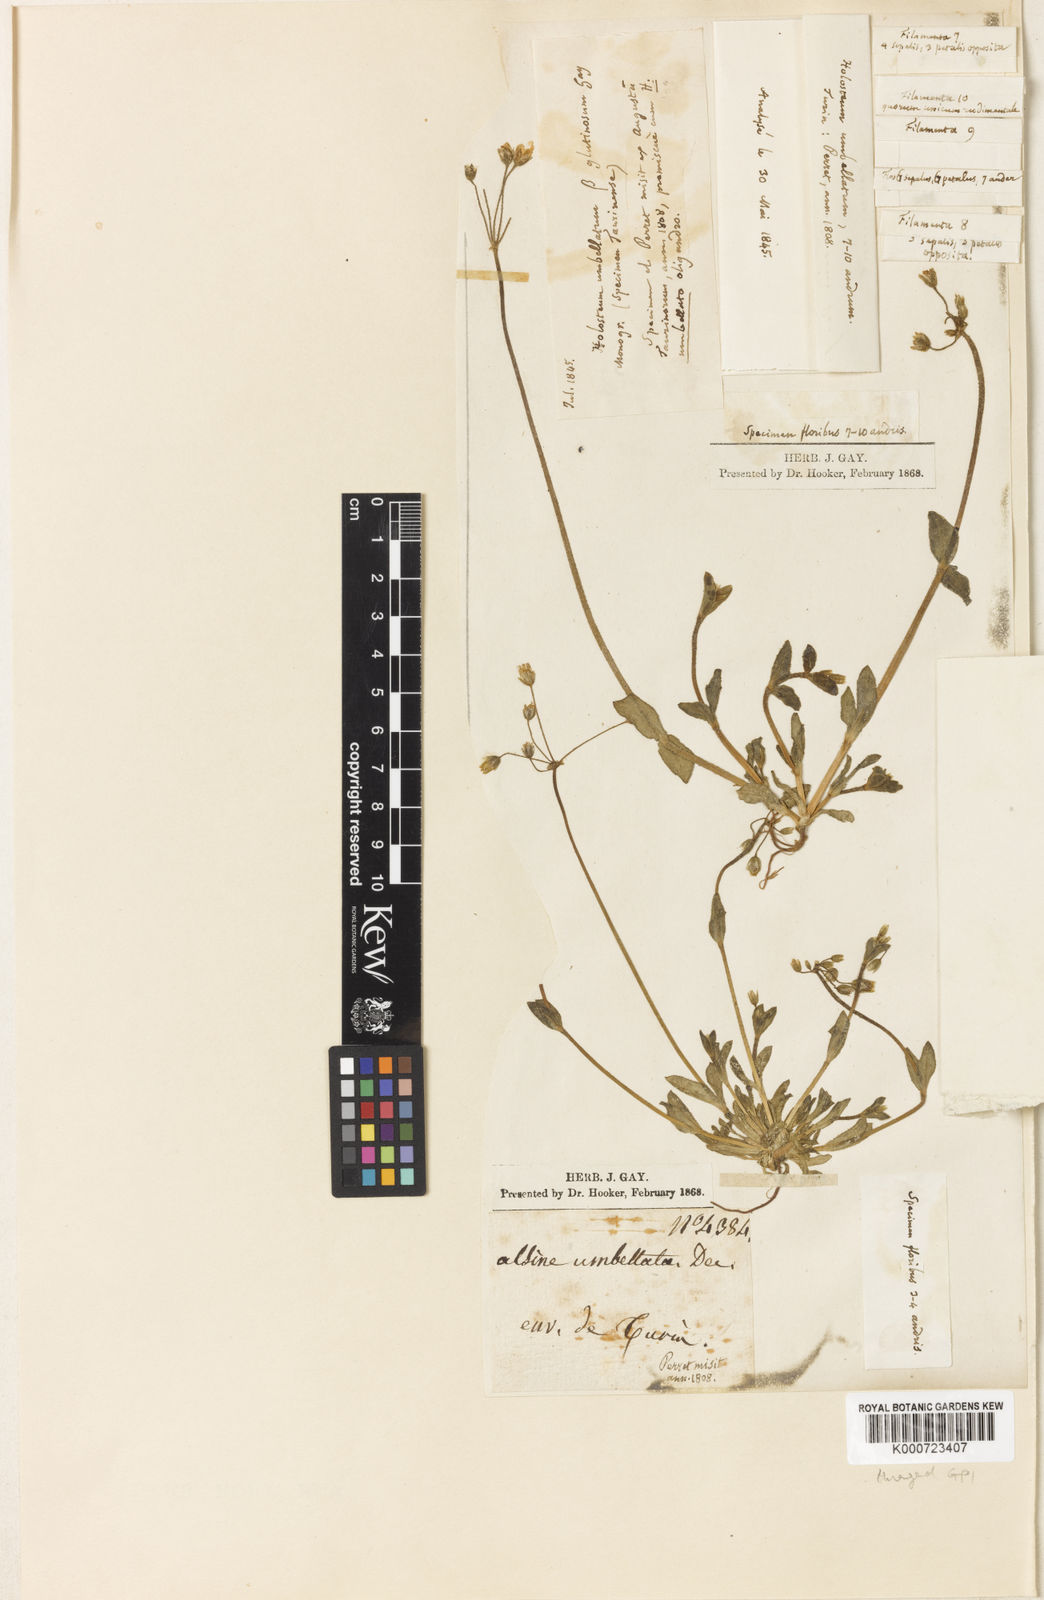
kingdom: Plantae
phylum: Tracheophyta
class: Magnoliopsida
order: Caryophyllales
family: Caryophyllaceae
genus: Holosteum
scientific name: Holosteum umbellatum
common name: Jagged chickweed
